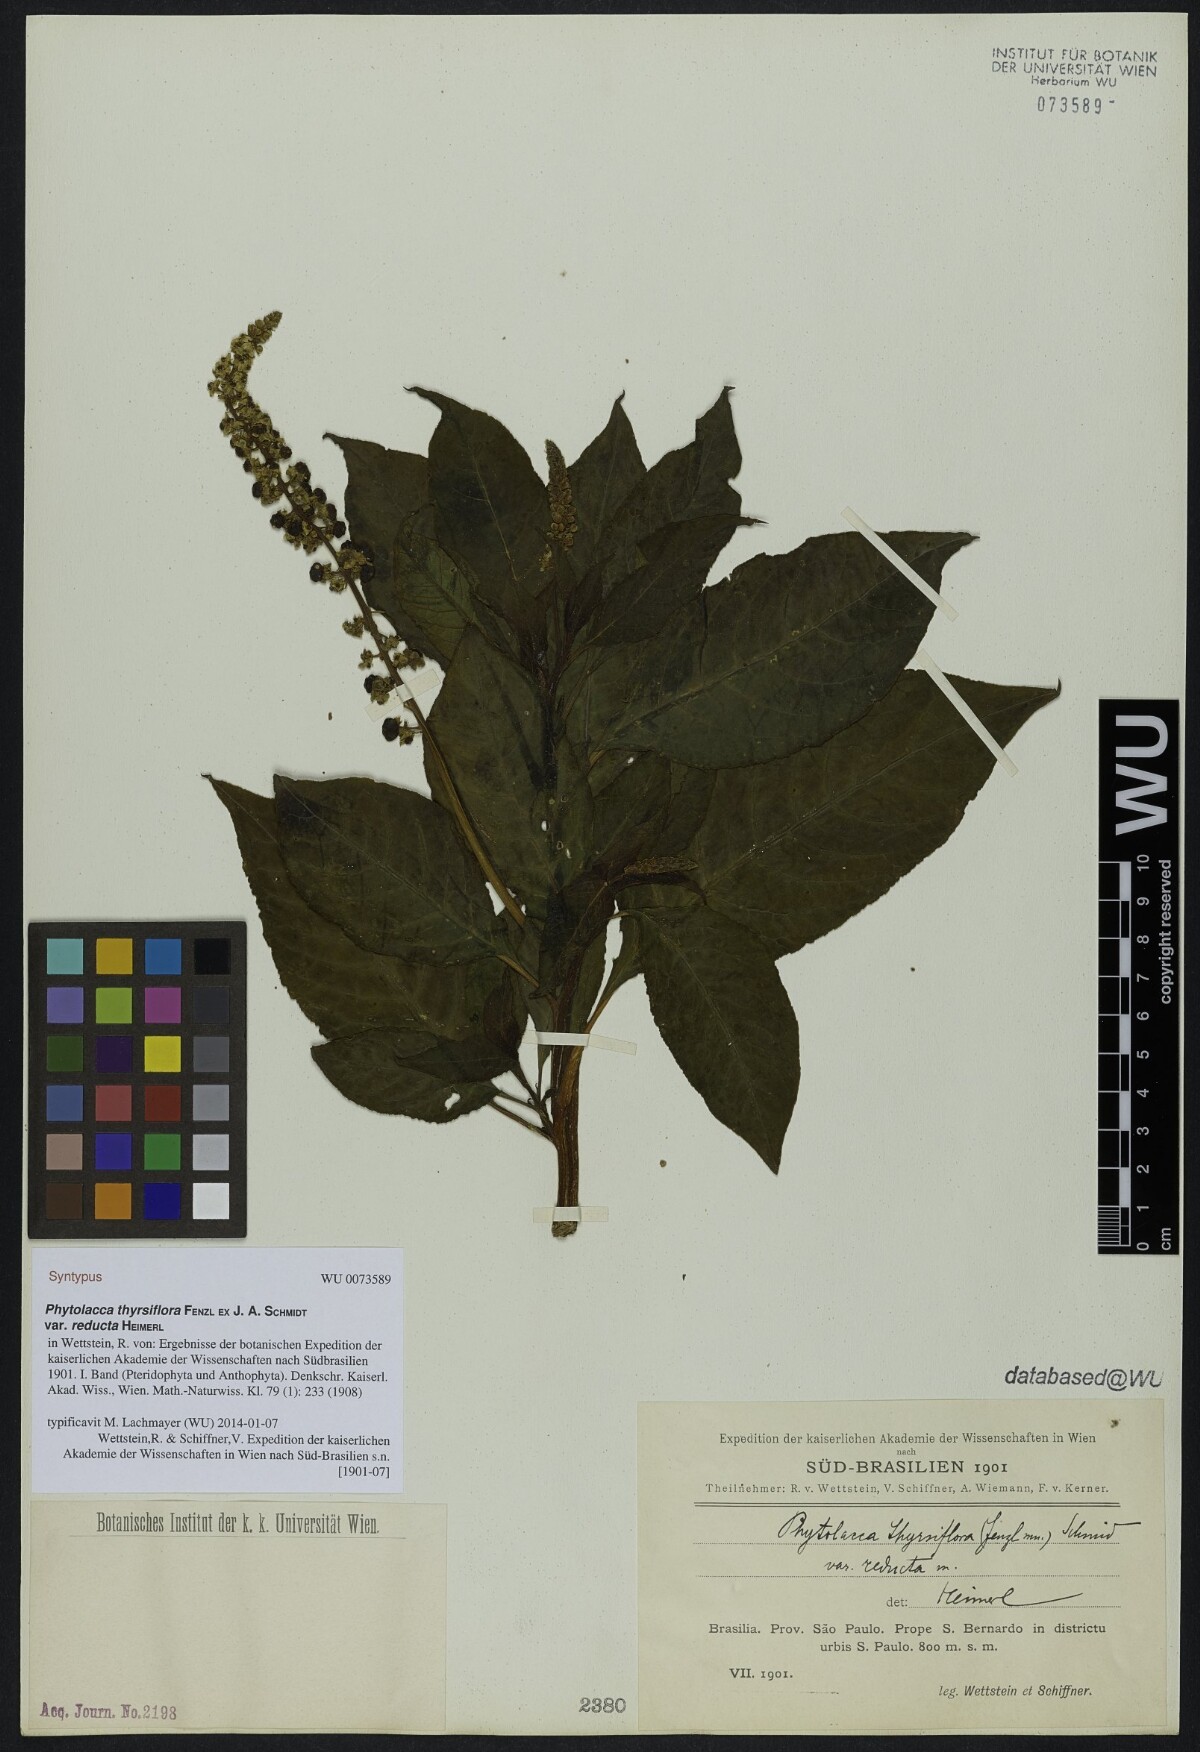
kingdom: Plantae
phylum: Tracheophyta
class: Magnoliopsida
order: Caryophyllales
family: Phytolaccaceae
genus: Phytolacca
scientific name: Phytolacca thyrsiflora
